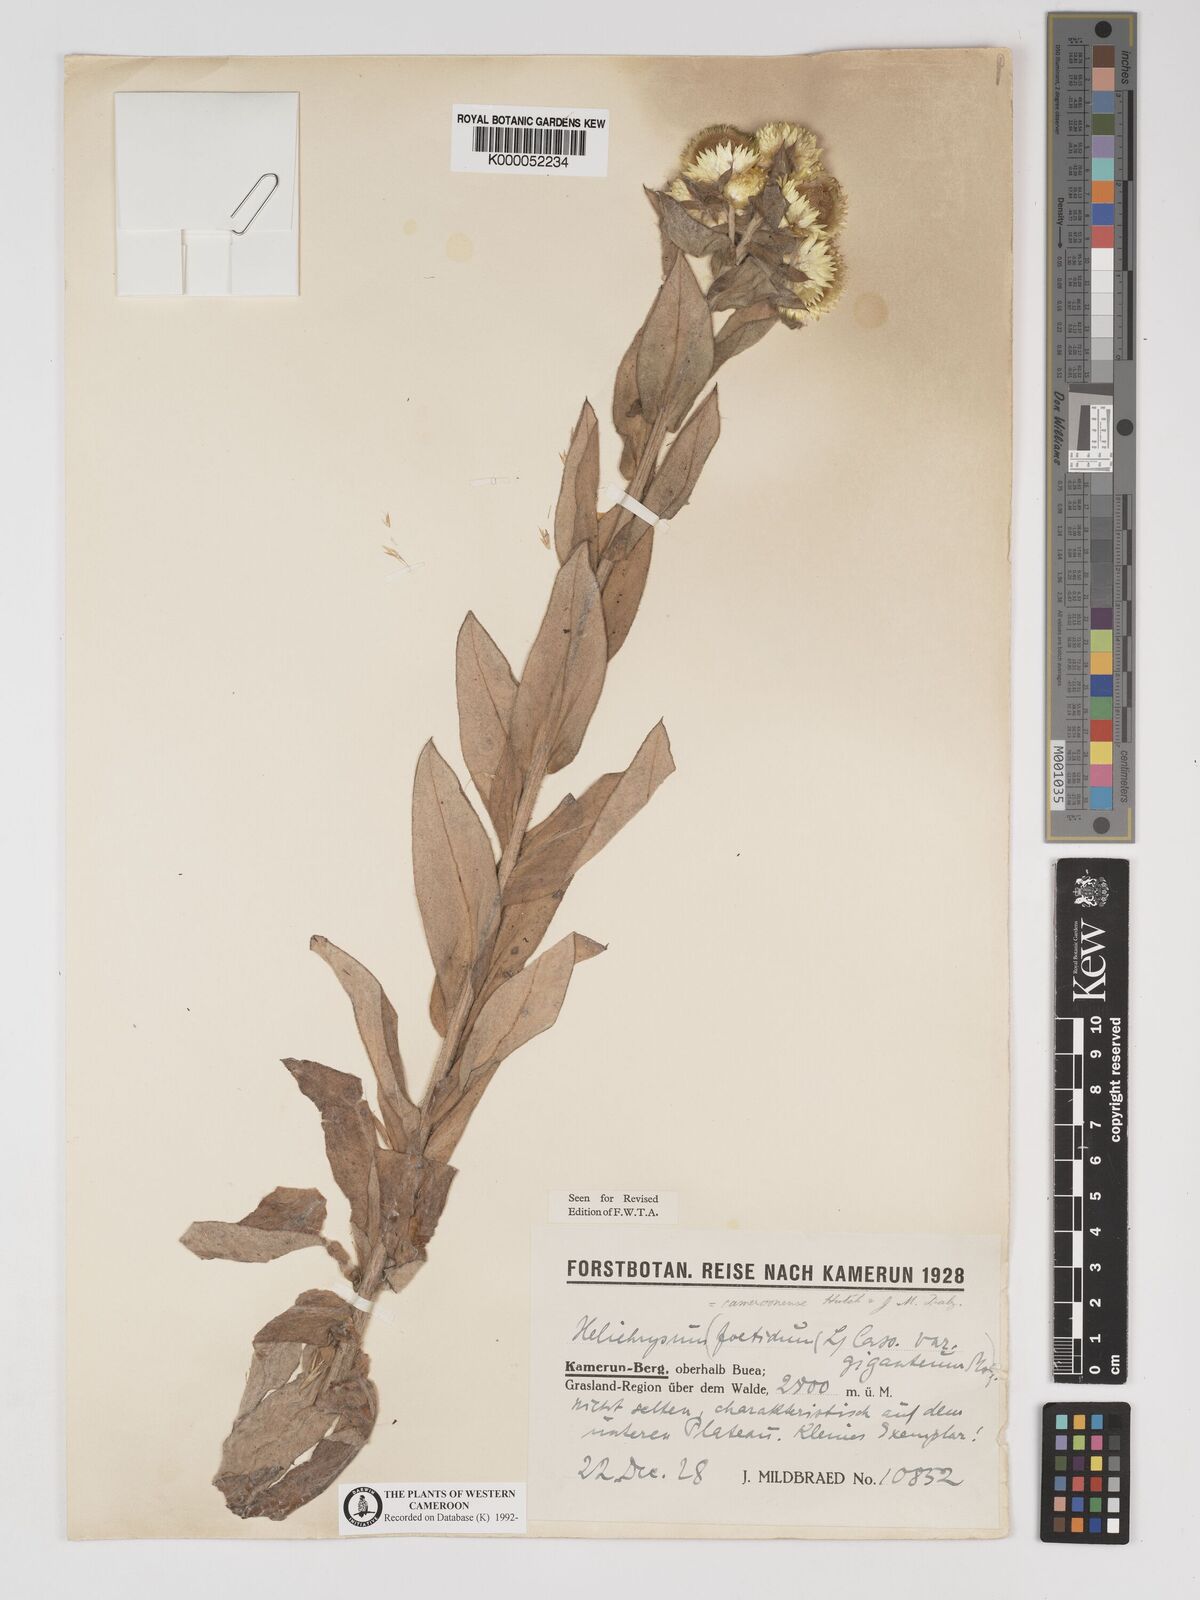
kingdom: Plantae
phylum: Tracheophyta
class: Magnoliopsida
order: Asterales
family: Asteraceae
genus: Helichrysum
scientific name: Helichrysum cameroonense
